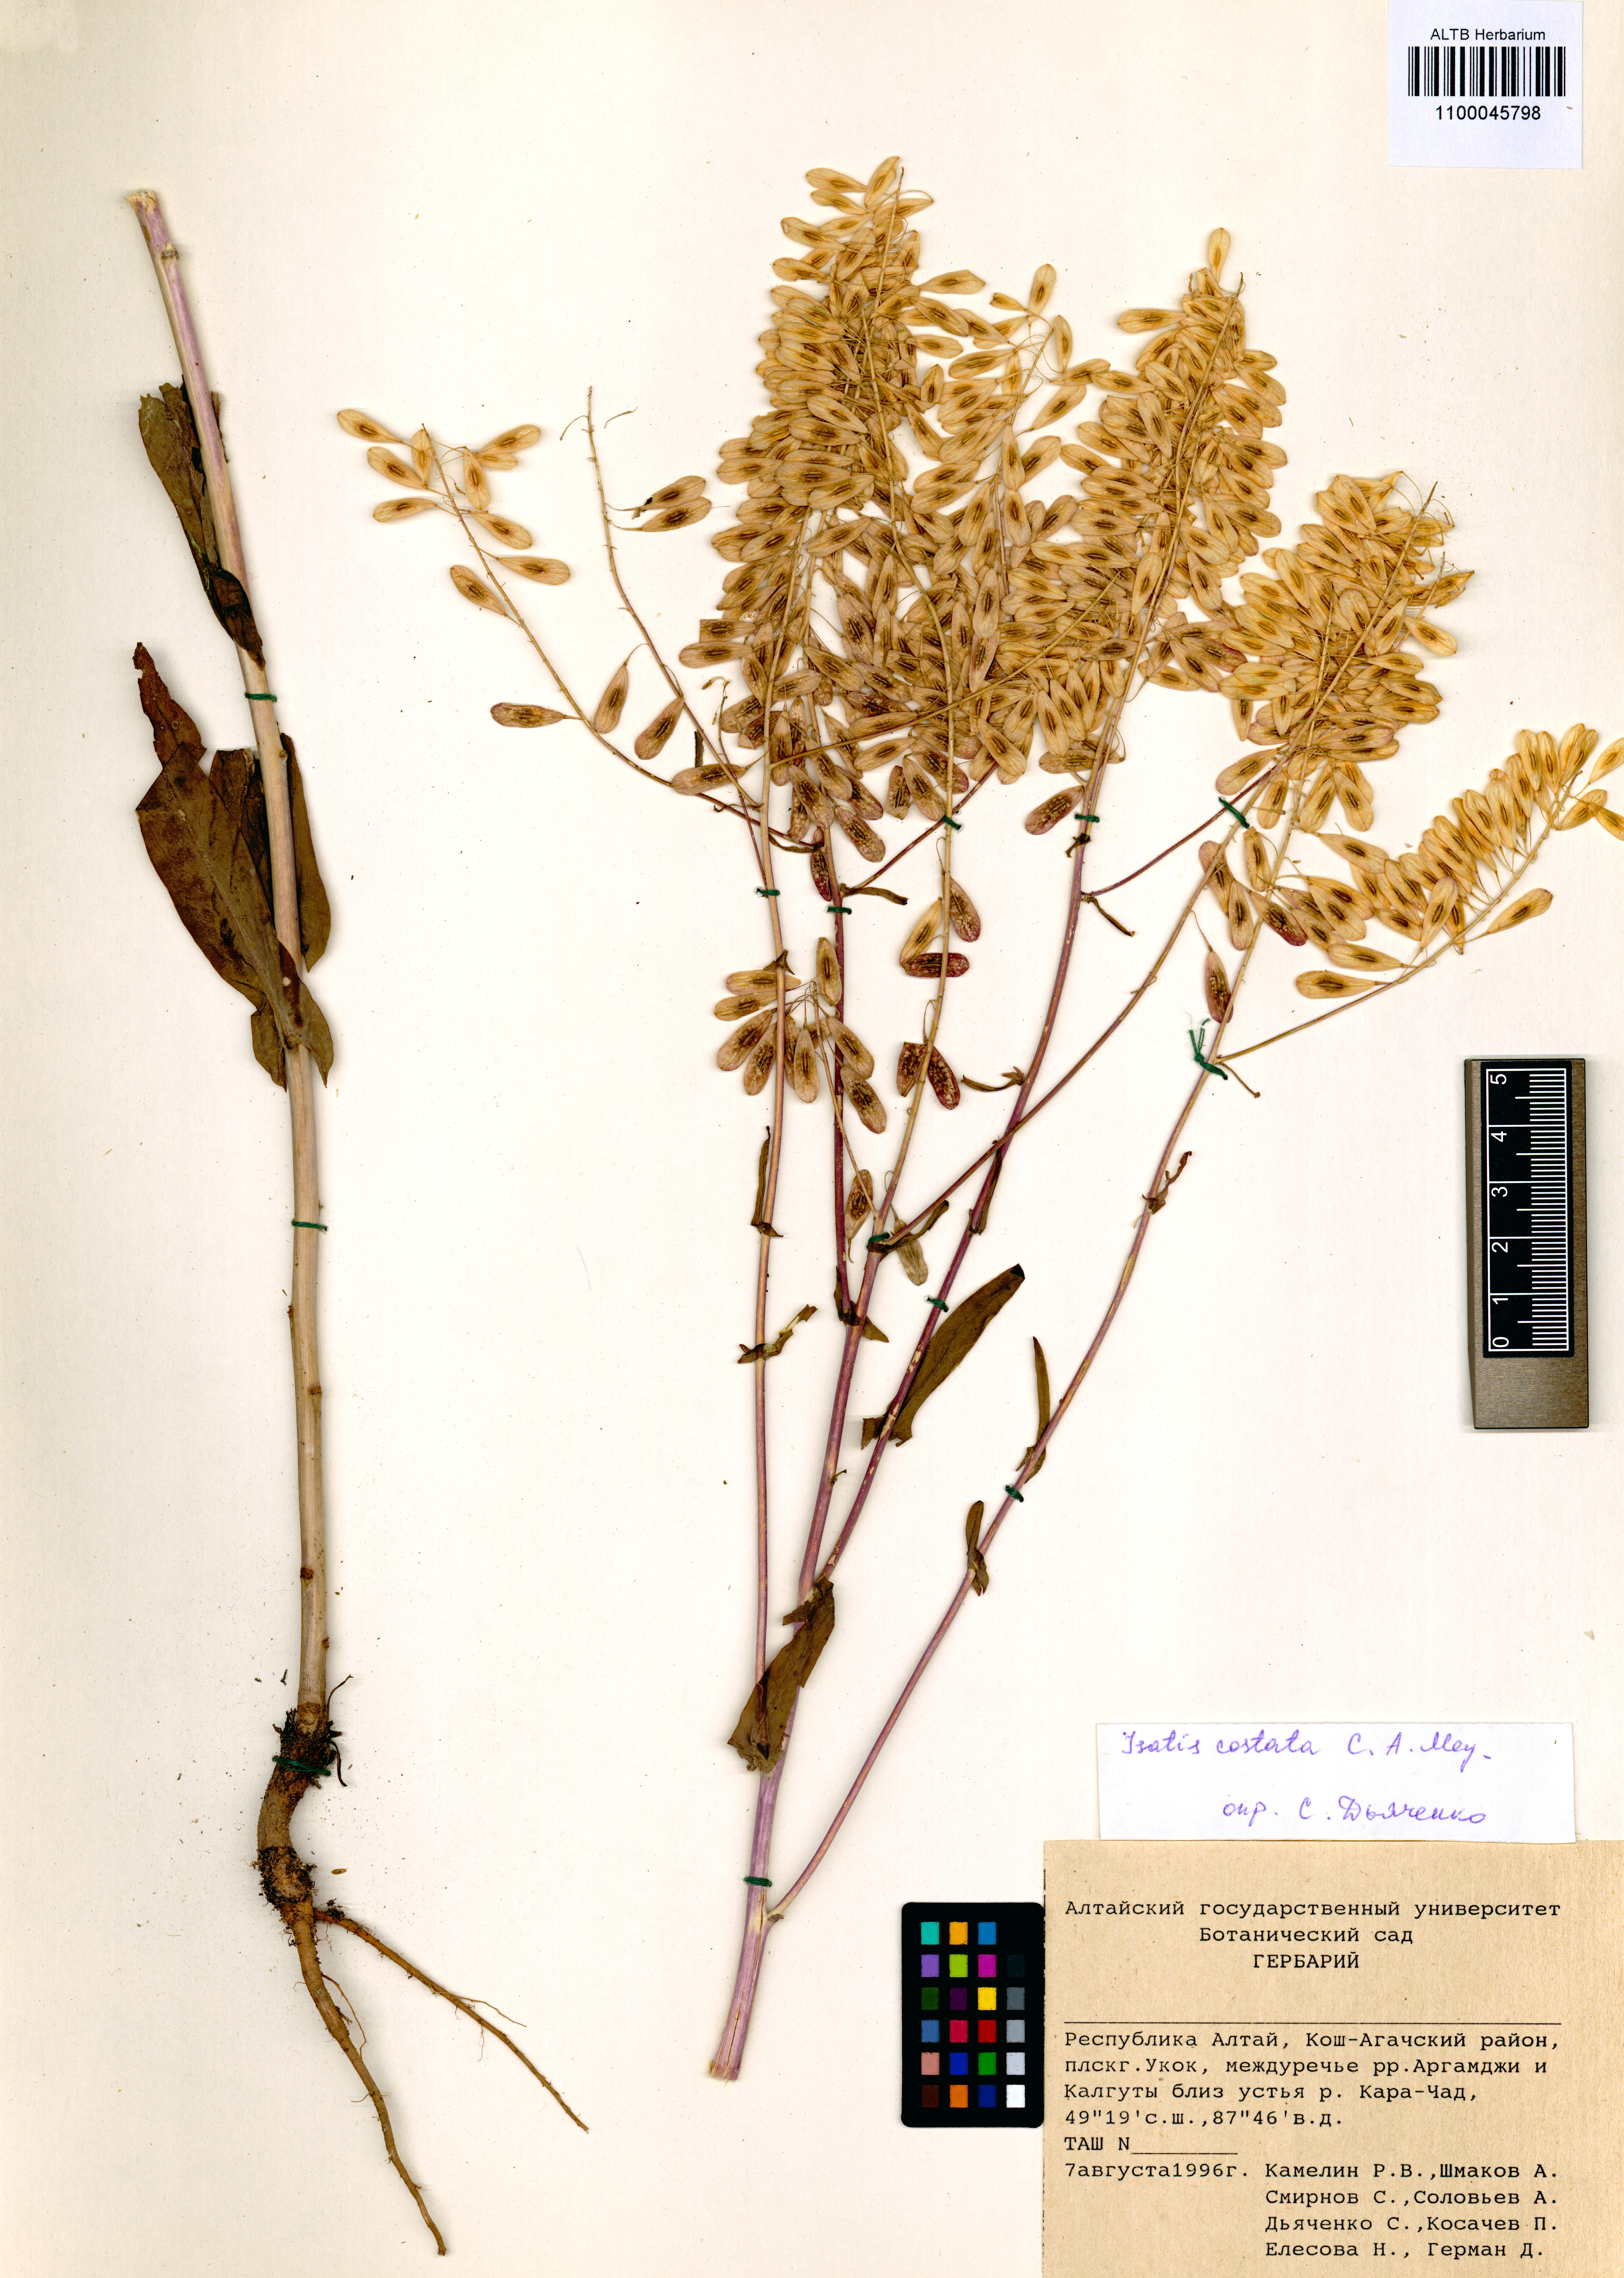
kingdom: Plantae
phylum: Tracheophyta
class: Magnoliopsida
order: Brassicales
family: Brassicaceae
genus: Isatis
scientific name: Isatis costata
